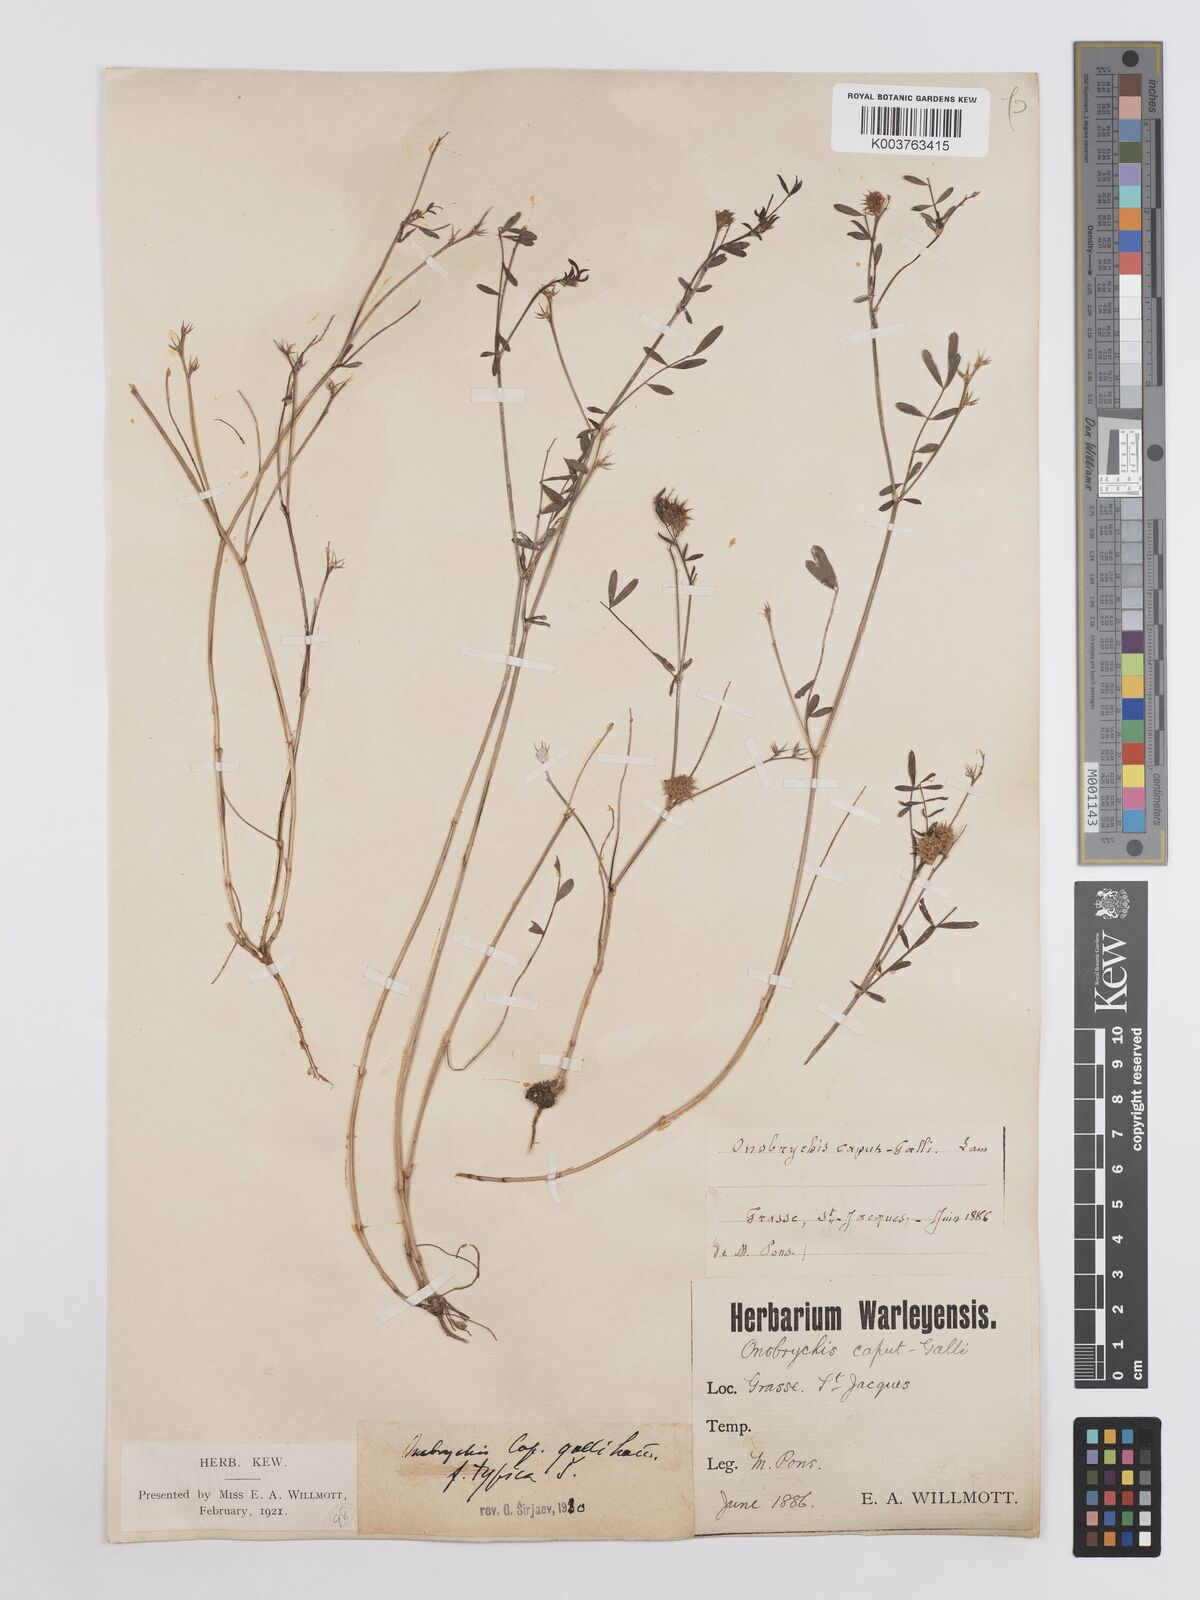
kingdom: Plantae
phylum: Tracheophyta
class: Magnoliopsida
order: Fabales
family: Fabaceae
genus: Onobrychis
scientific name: Onobrychis caput-galli
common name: Cockscomb sainfoin
